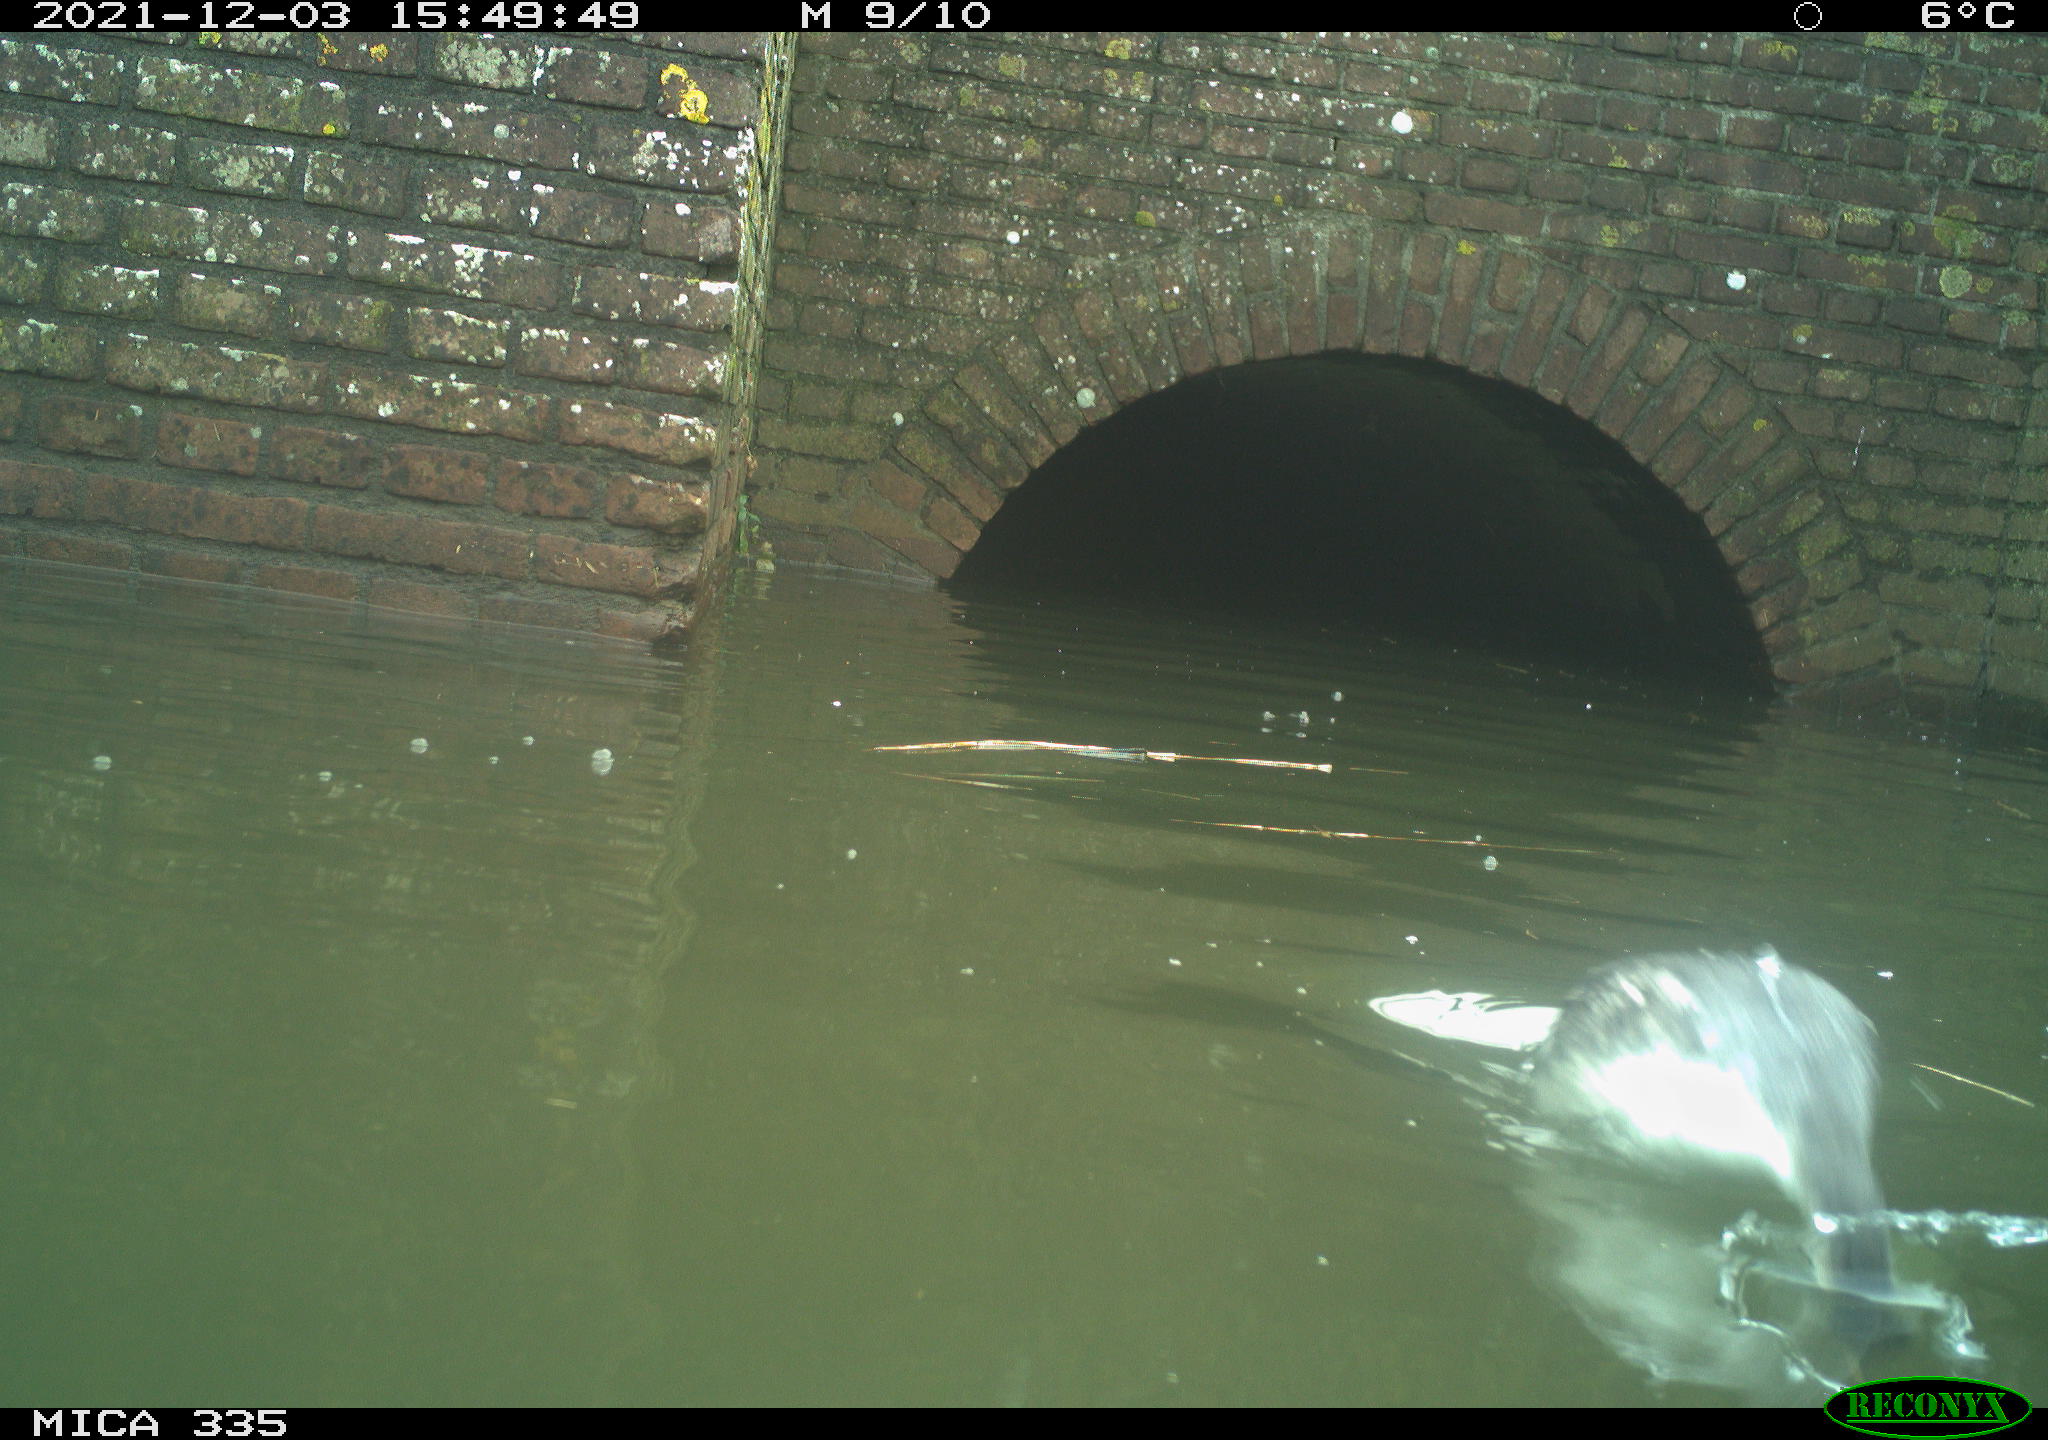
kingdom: Animalia
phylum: Chordata
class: Aves
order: Podicipediformes
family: Podicipedidae
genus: Podiceps
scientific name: Podiceps cristatus
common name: Great crested grebe
